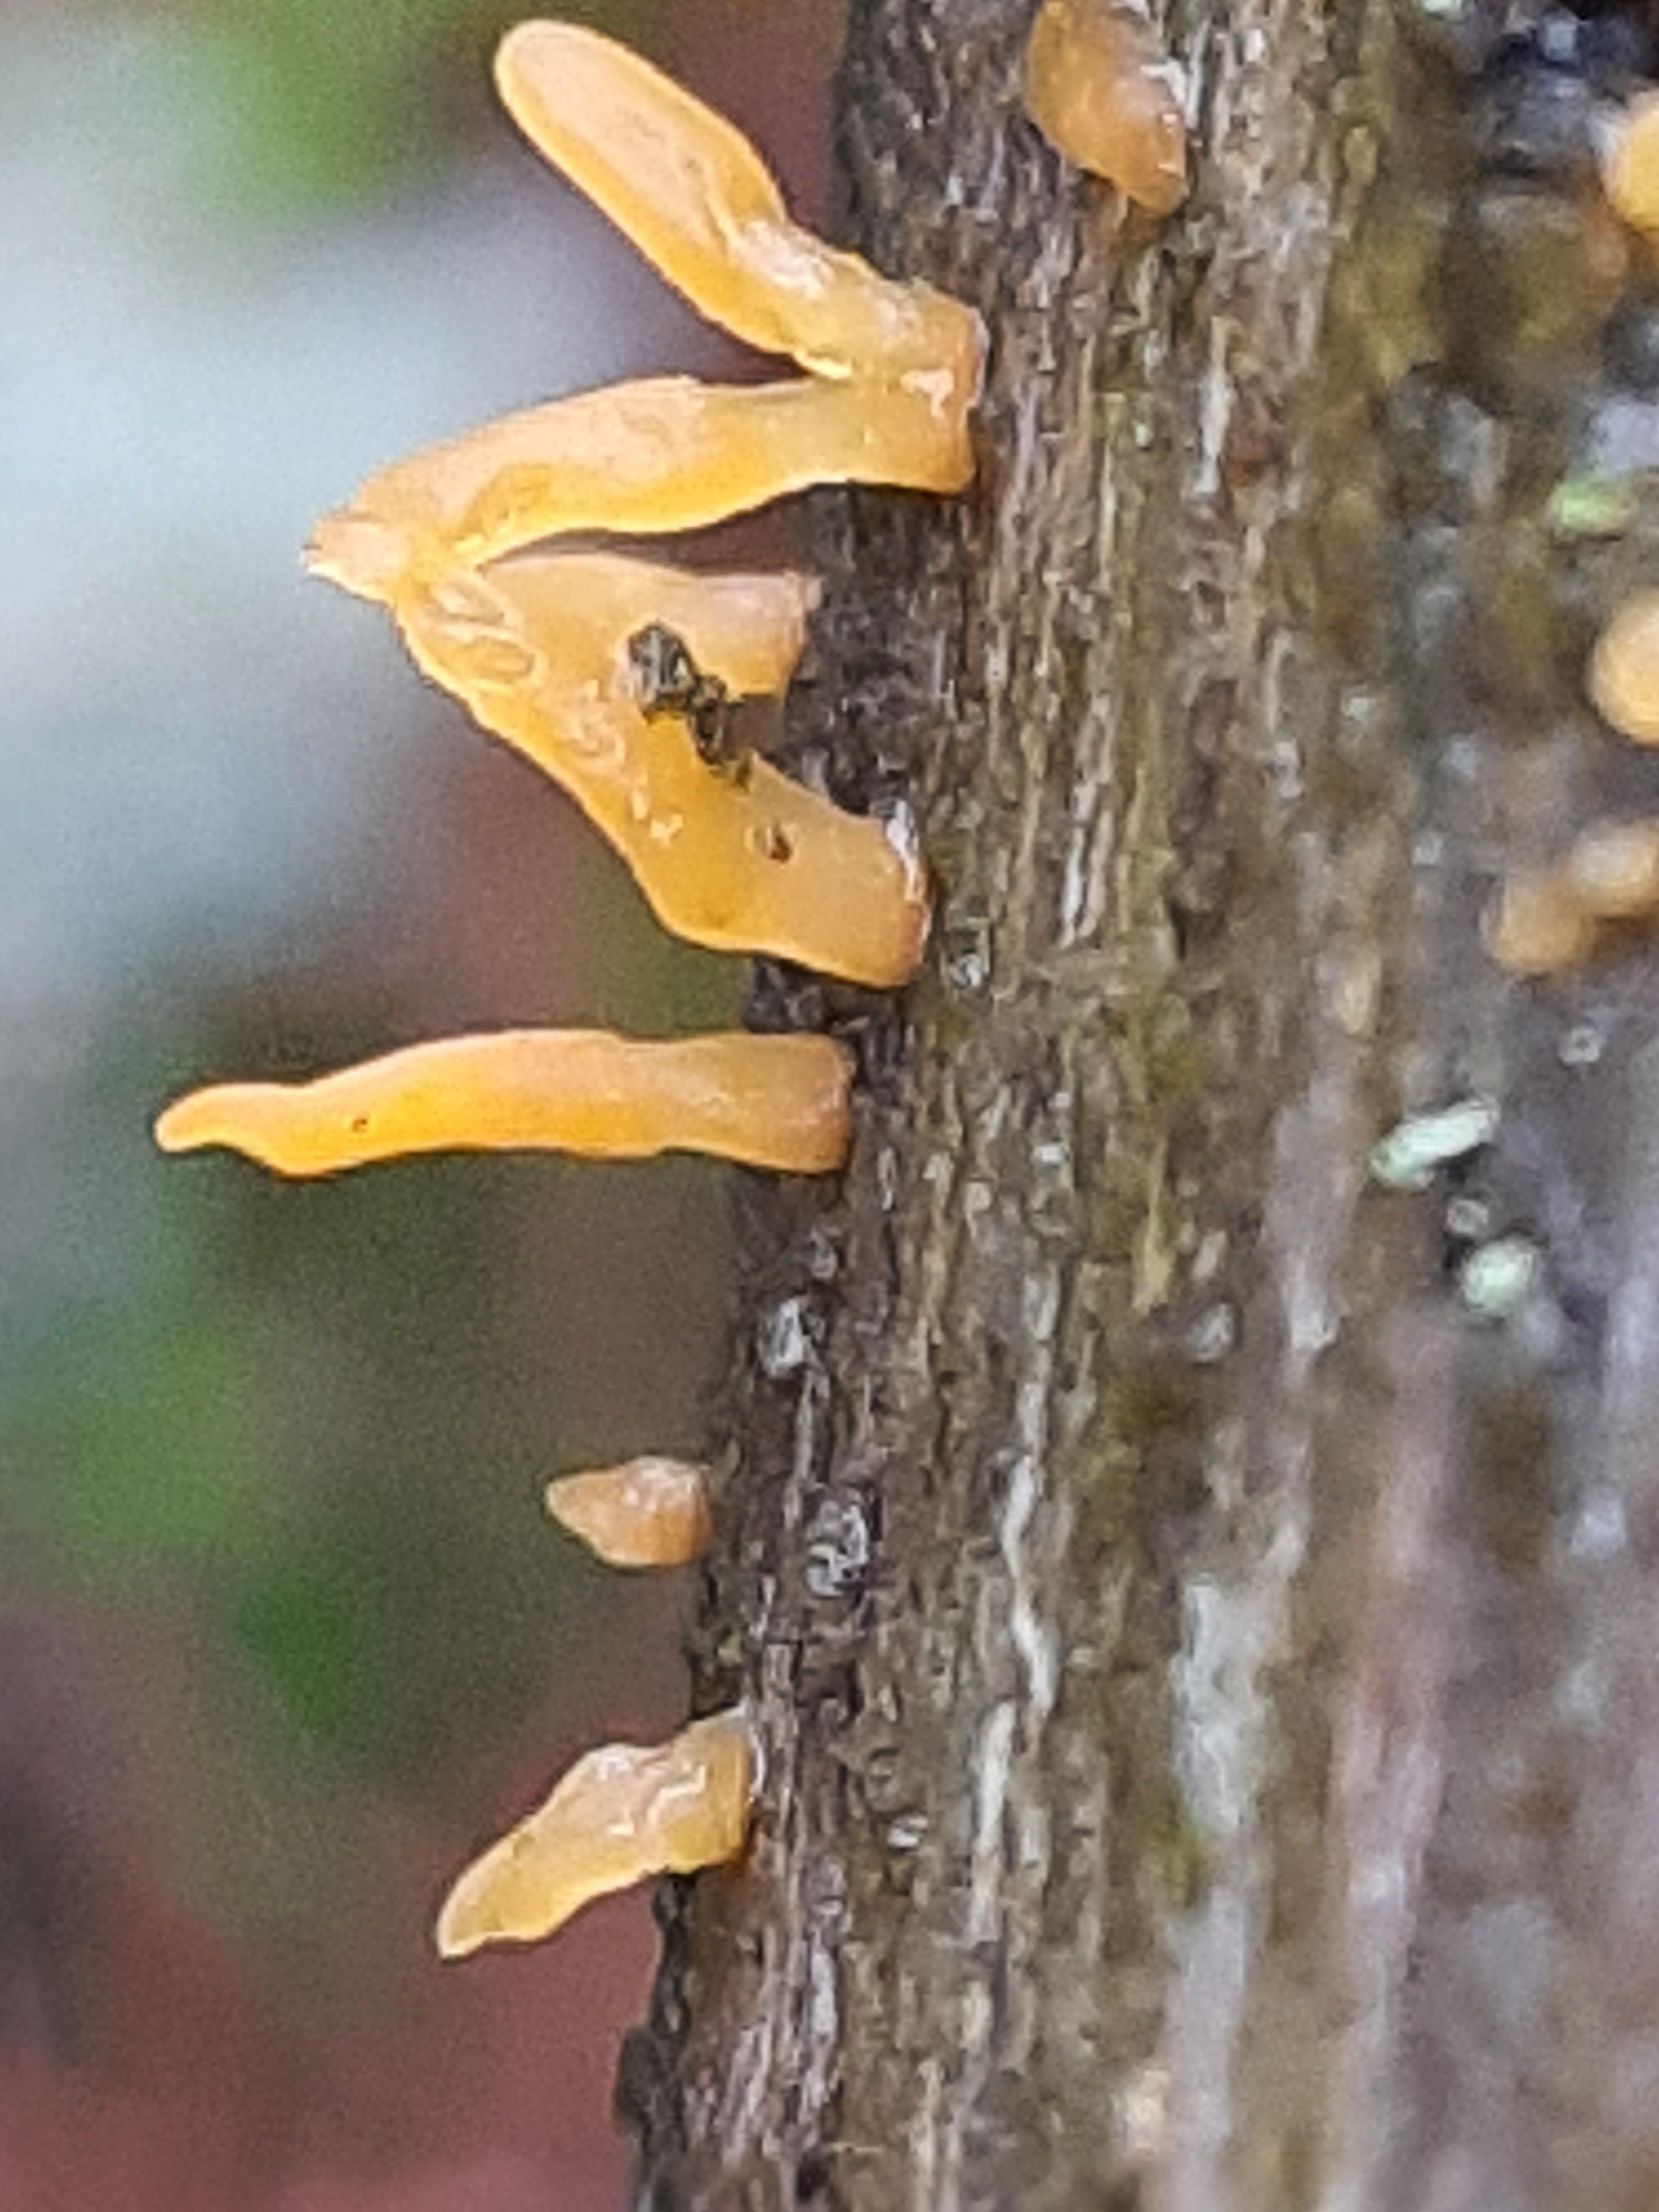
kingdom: Fungi
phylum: Basidiomycota
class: Dacrymycetes
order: Dacrymycetales
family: Dacrymycetaceae
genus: Calocera
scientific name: Calocera cornea
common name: liden guldgaffel
